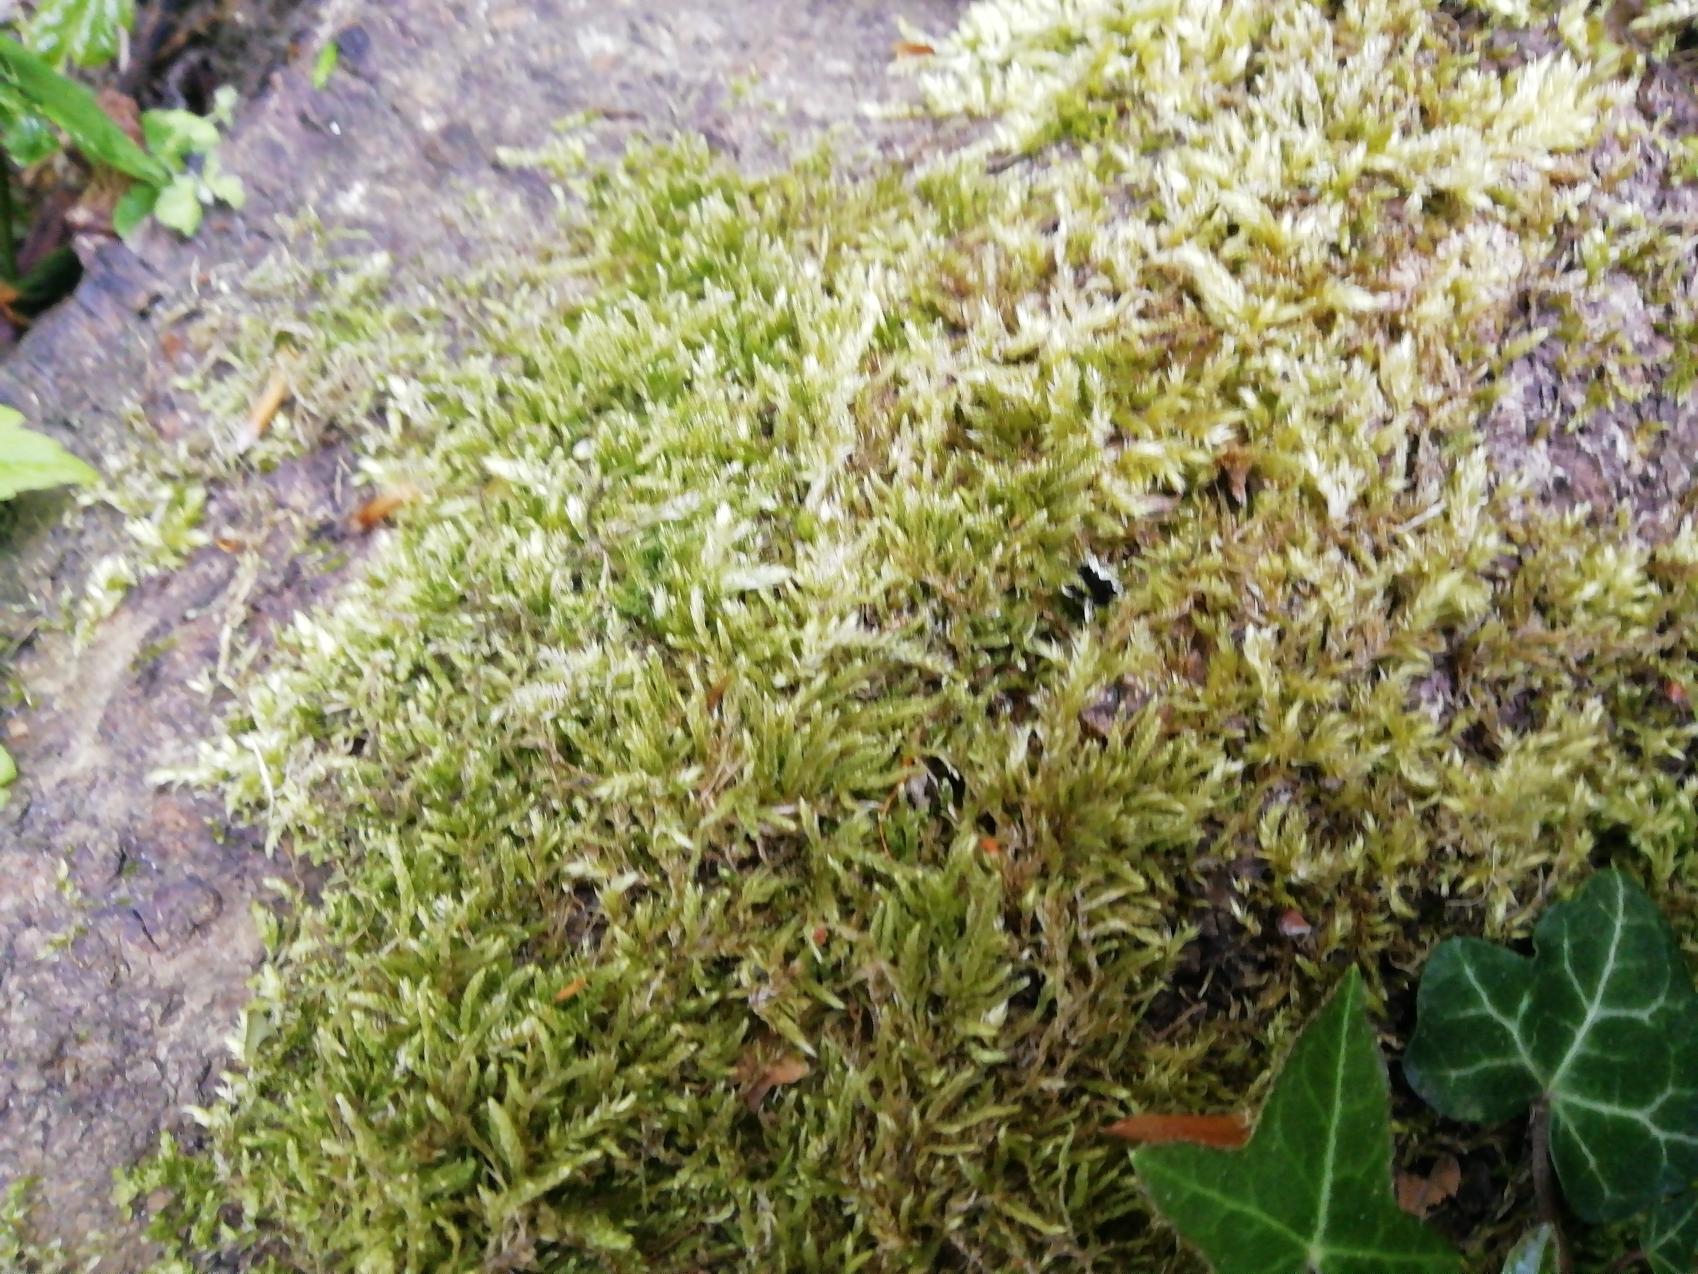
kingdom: Plantae
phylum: Bryophyta
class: Bryopsida
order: Hypnales
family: Brachytheciaceae
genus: Brachythecium
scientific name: Brachythecium rutabulum
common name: Almindelig kortkapsel
